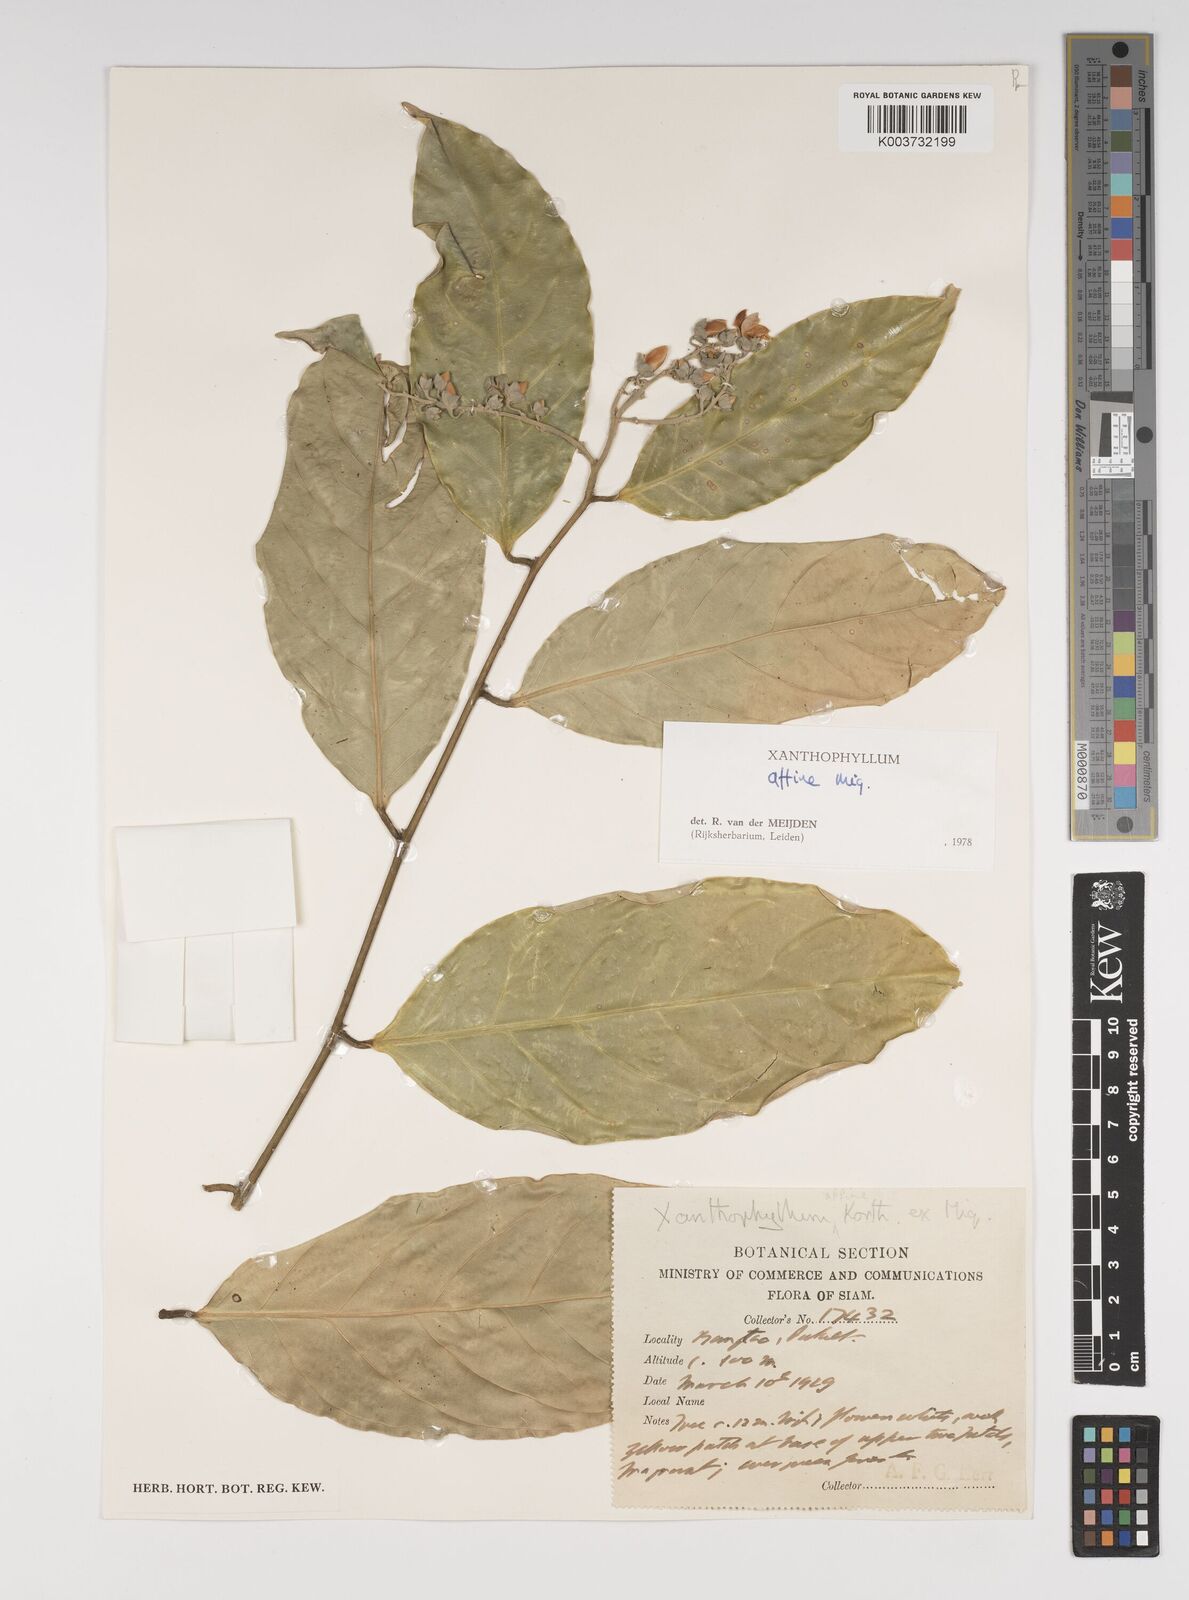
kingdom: Plantae
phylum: Tracheophyta
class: Magnoliopsida
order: Fabales
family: Polygalaceae
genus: Xanthophyllum
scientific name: Xanthophyllum flavescens
